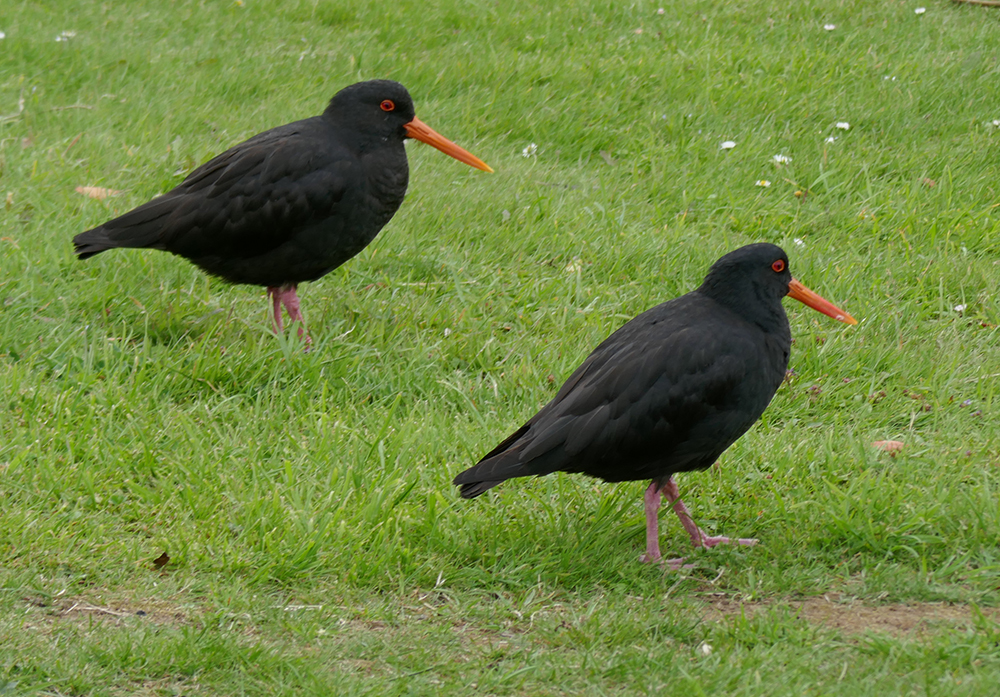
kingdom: Animalia
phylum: Chordata
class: Aves
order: Charadriiformes
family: Haematopodidae
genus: Haematopus
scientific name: Haematopus unicolor
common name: Variable oystercatcher
